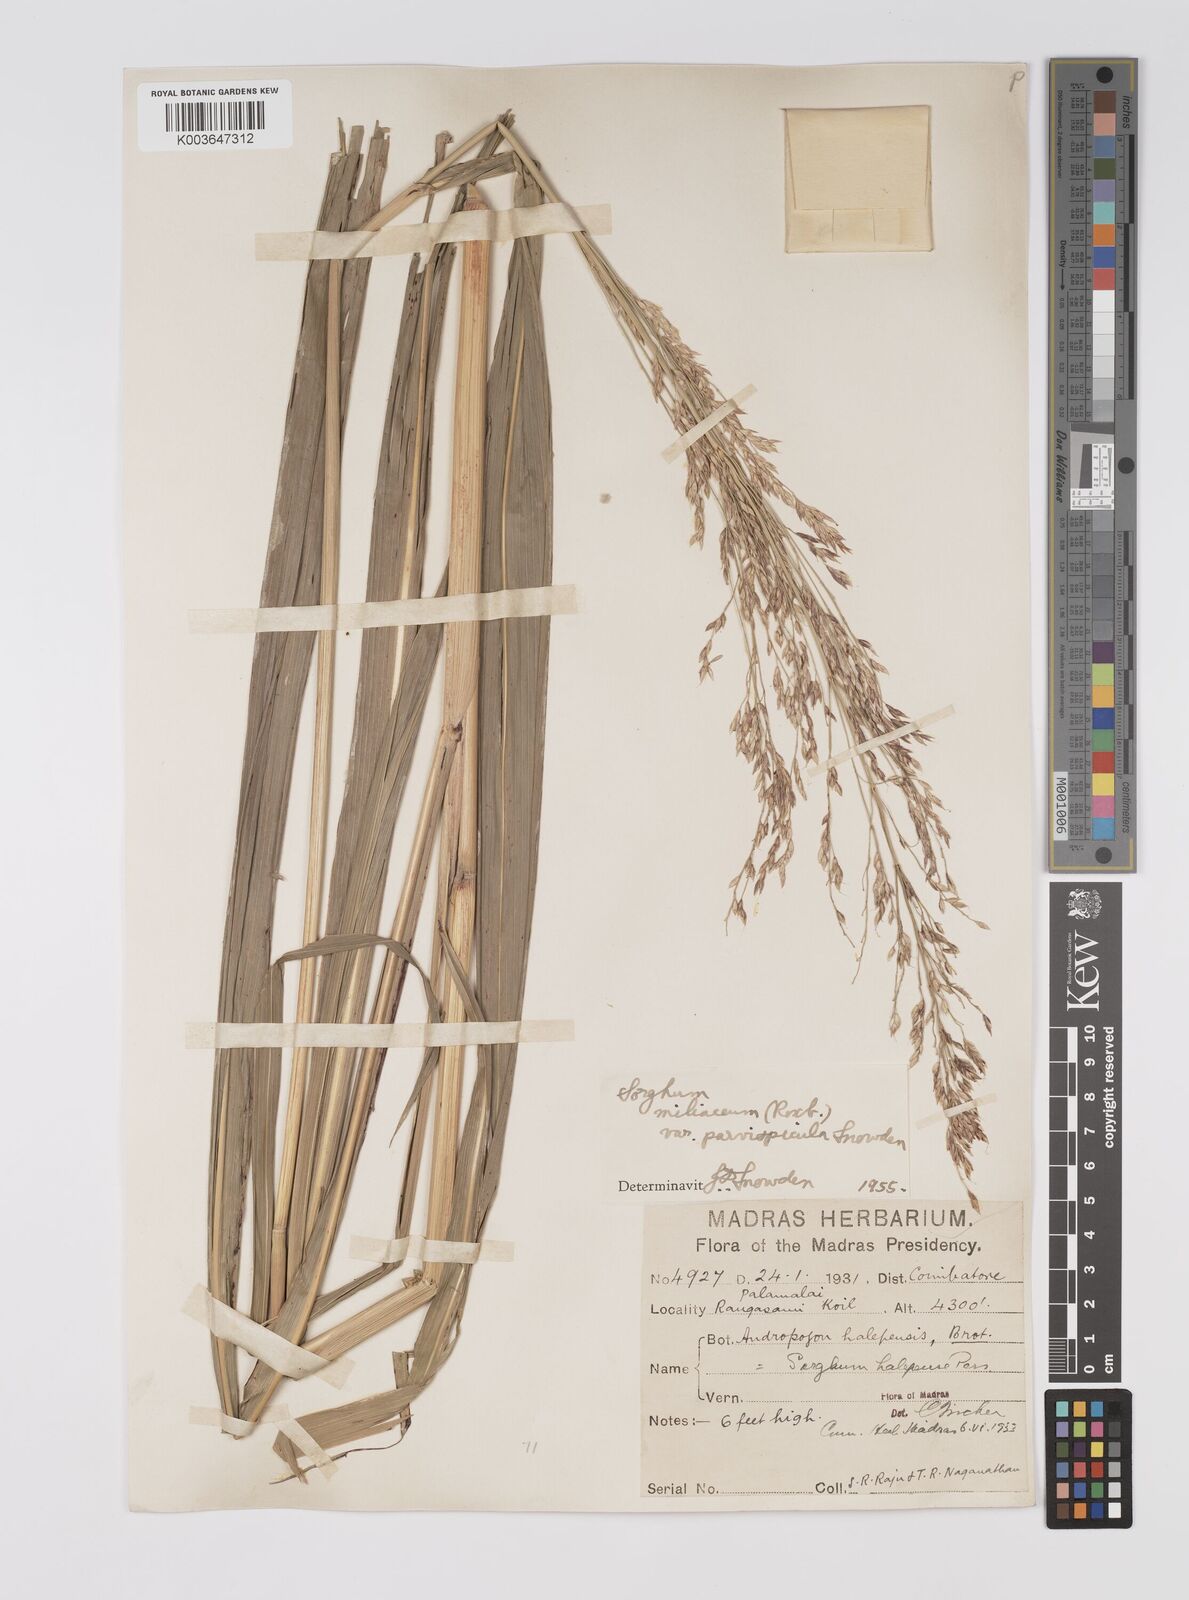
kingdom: Plantae
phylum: Tracheophyta
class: Liliopsida
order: Poales
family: Poaceae
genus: Sorghum
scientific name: Sorghum halepense
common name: Johnson-grass
